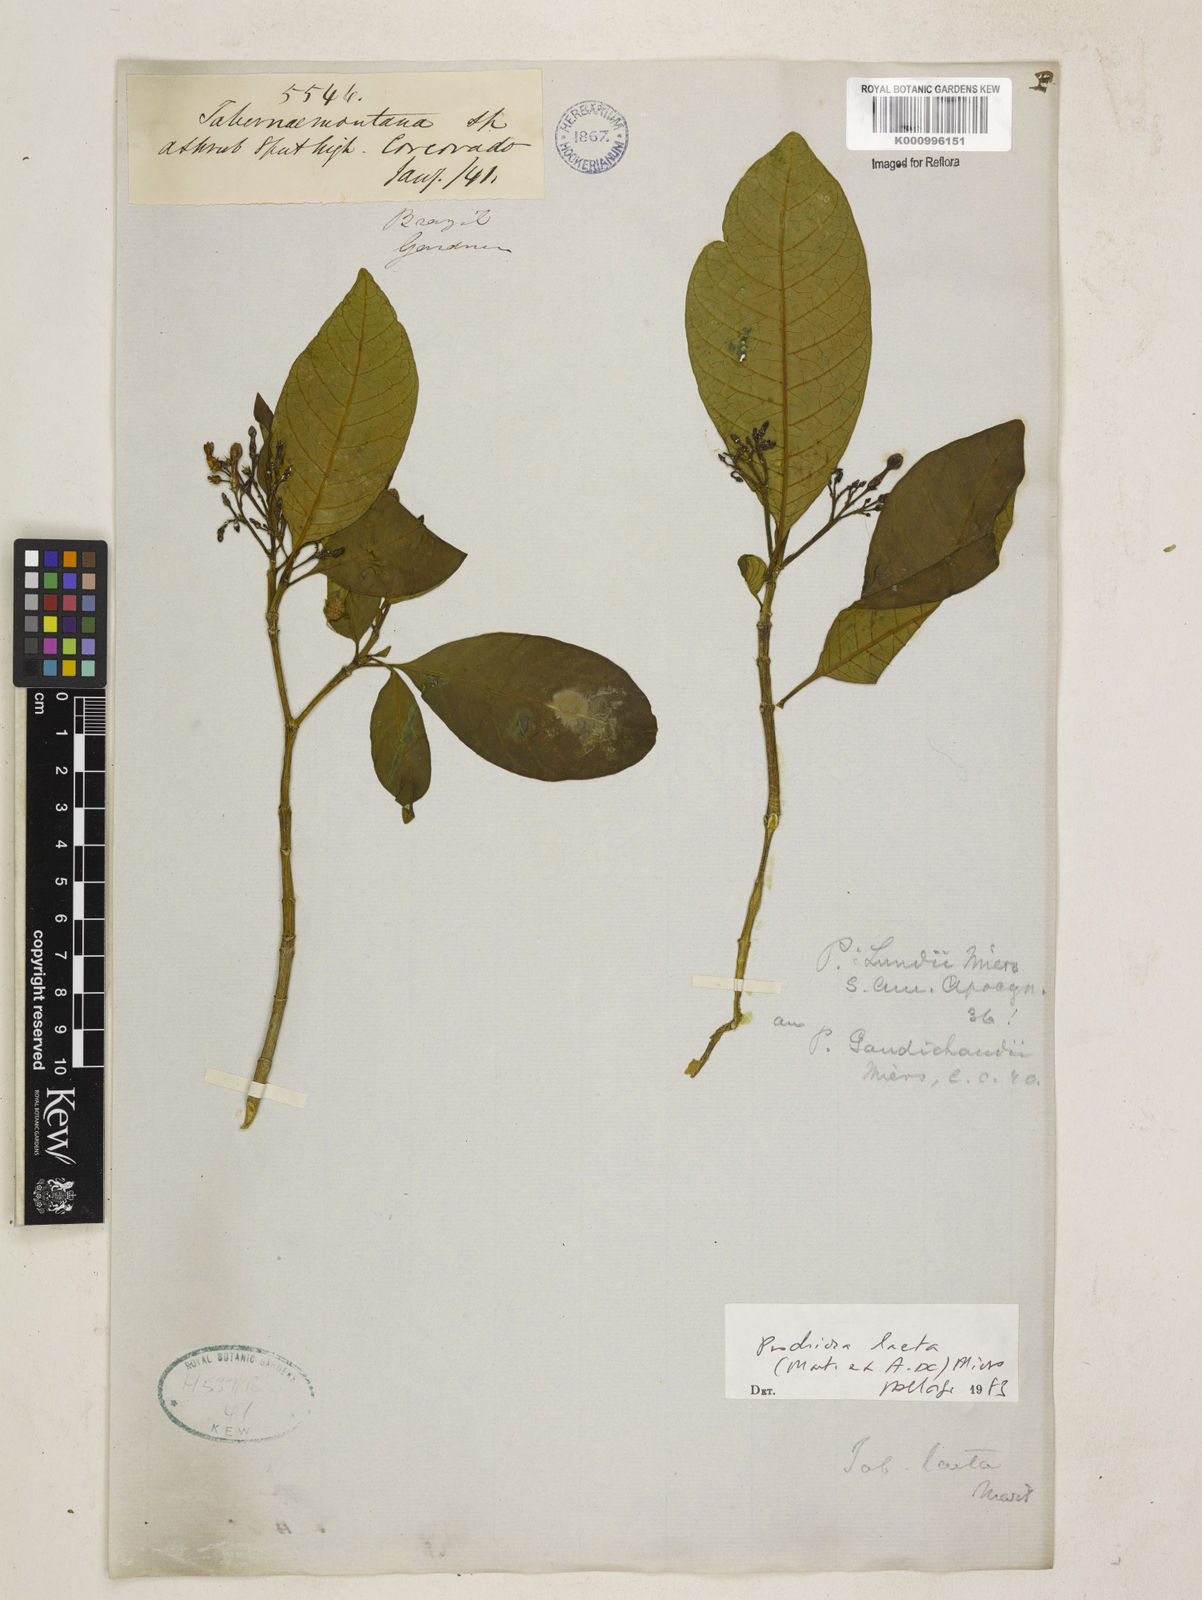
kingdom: Plantae
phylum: Tracheophyta
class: Magnoliopsida
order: Gentianales
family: Apocynaceae
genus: Tabernaemontana
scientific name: Tabernaemontana laeta
